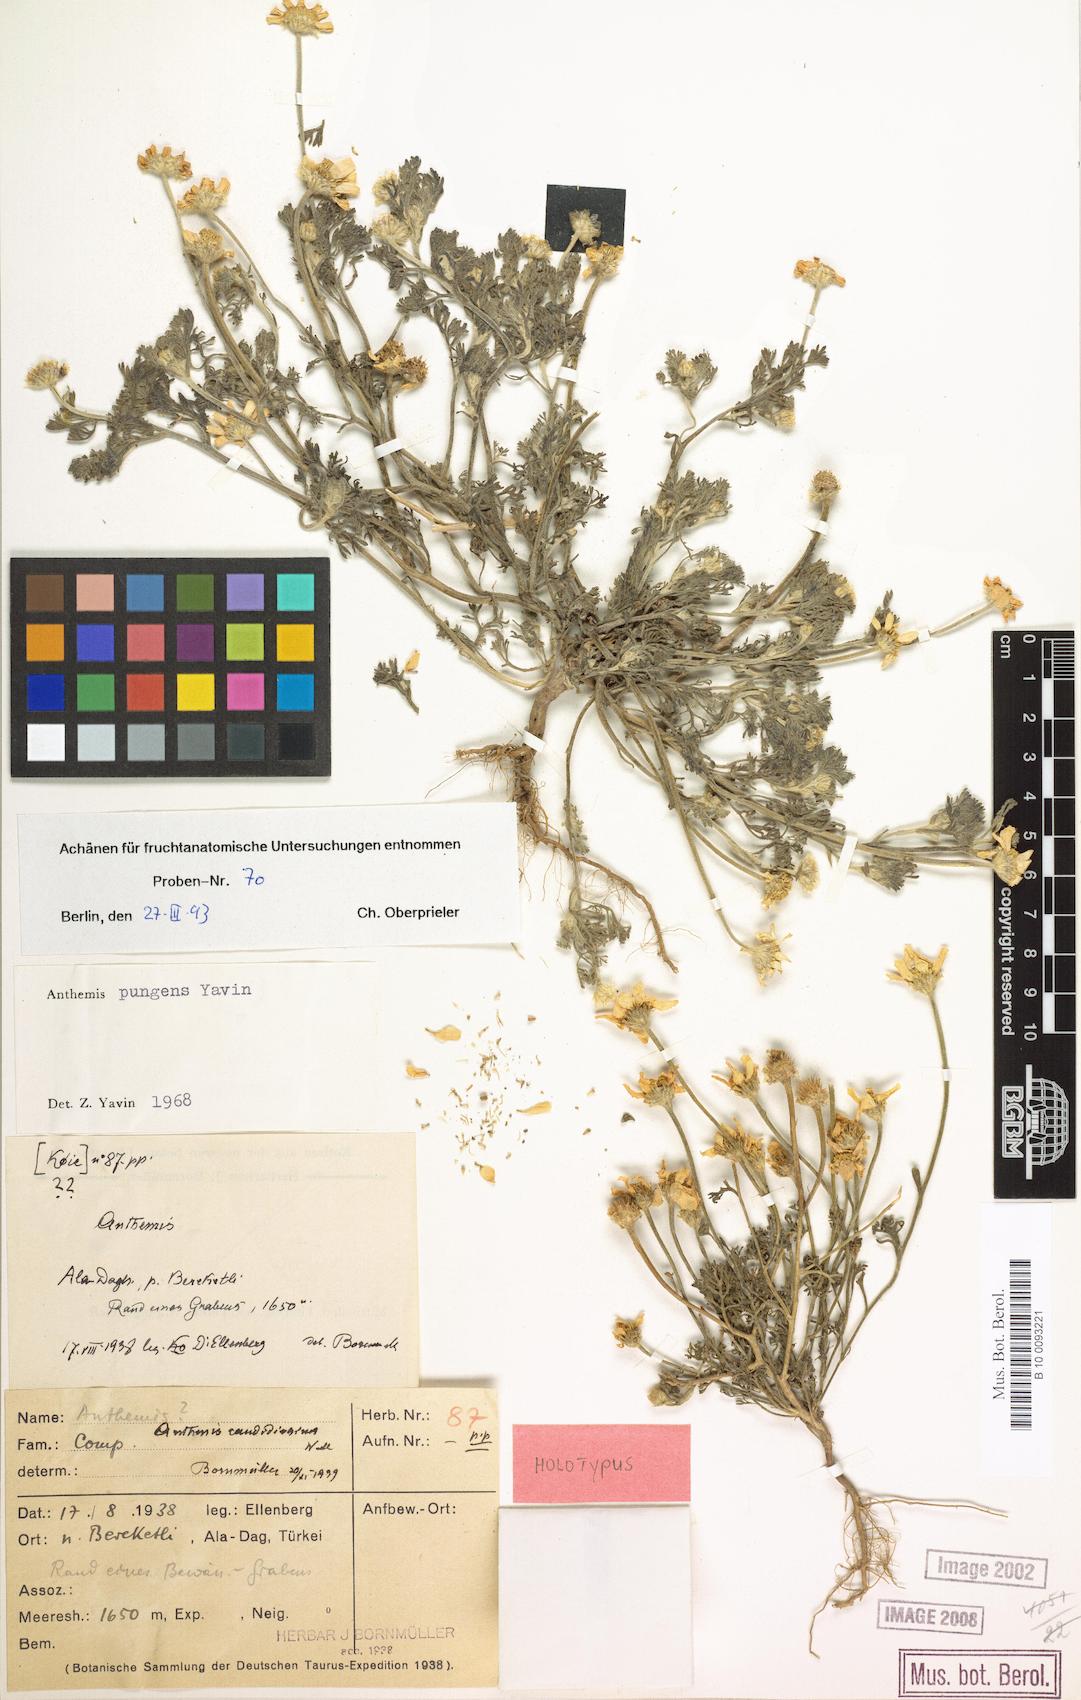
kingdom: Plantae
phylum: Tracheophyta
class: Magnoliopsida
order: Asterales
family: Asteraceae
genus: Anthemis
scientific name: Anthemis pungens
